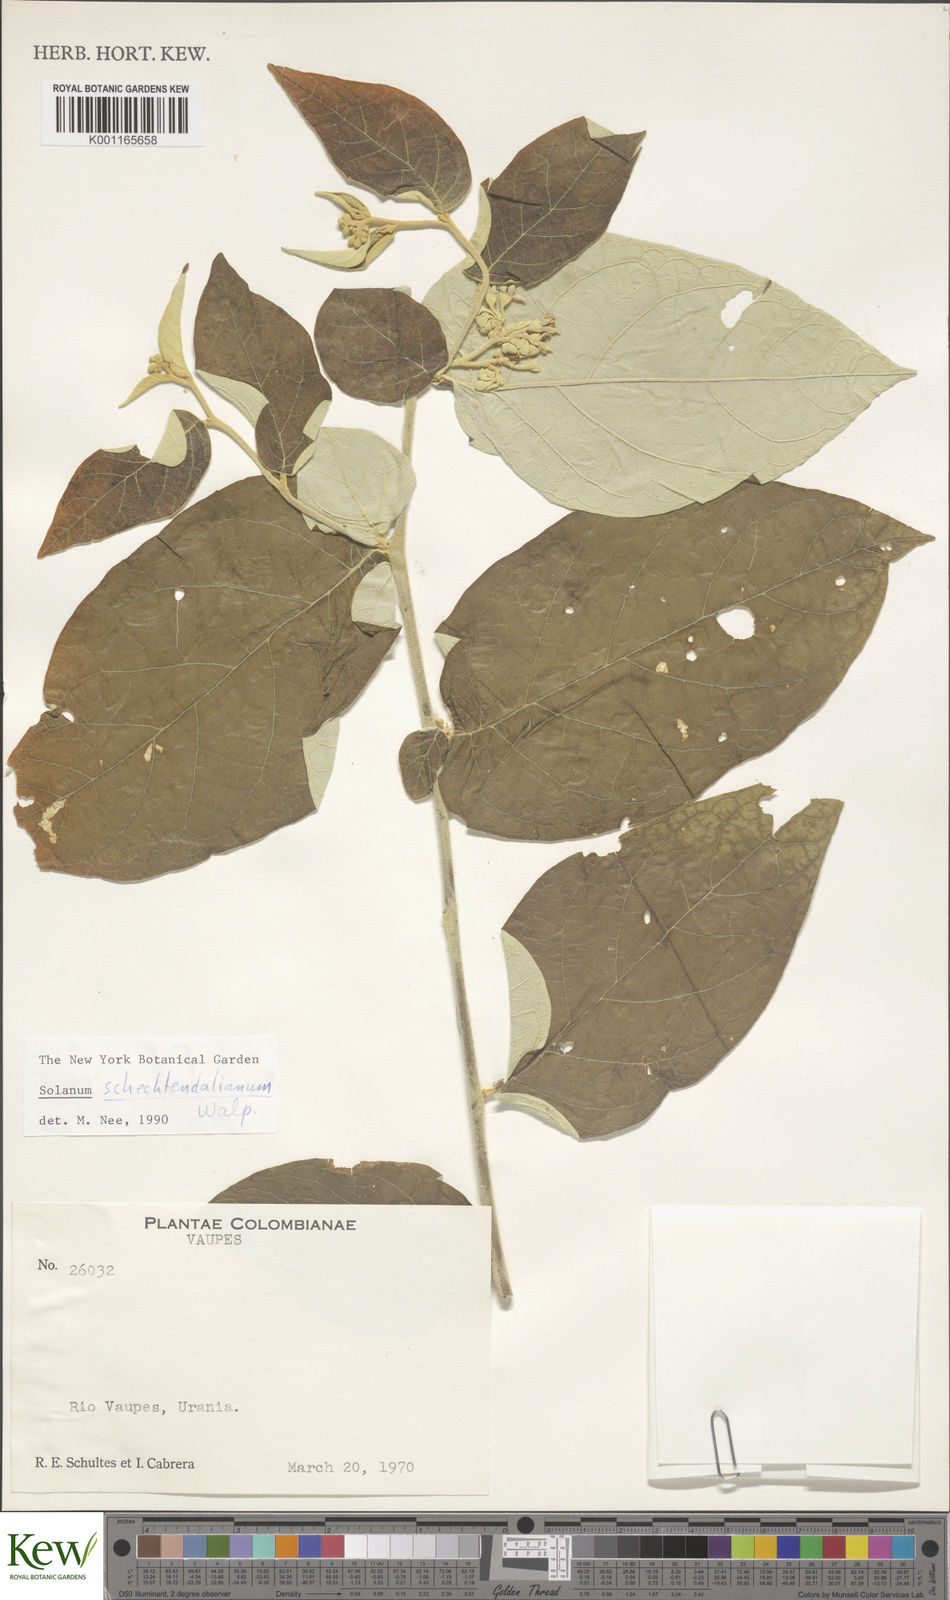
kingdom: Plantae
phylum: Tracheophyta
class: Magnoliopsida
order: Solanales
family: Solanaceae
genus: Solanum
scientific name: Solanum schlechtendalianum
